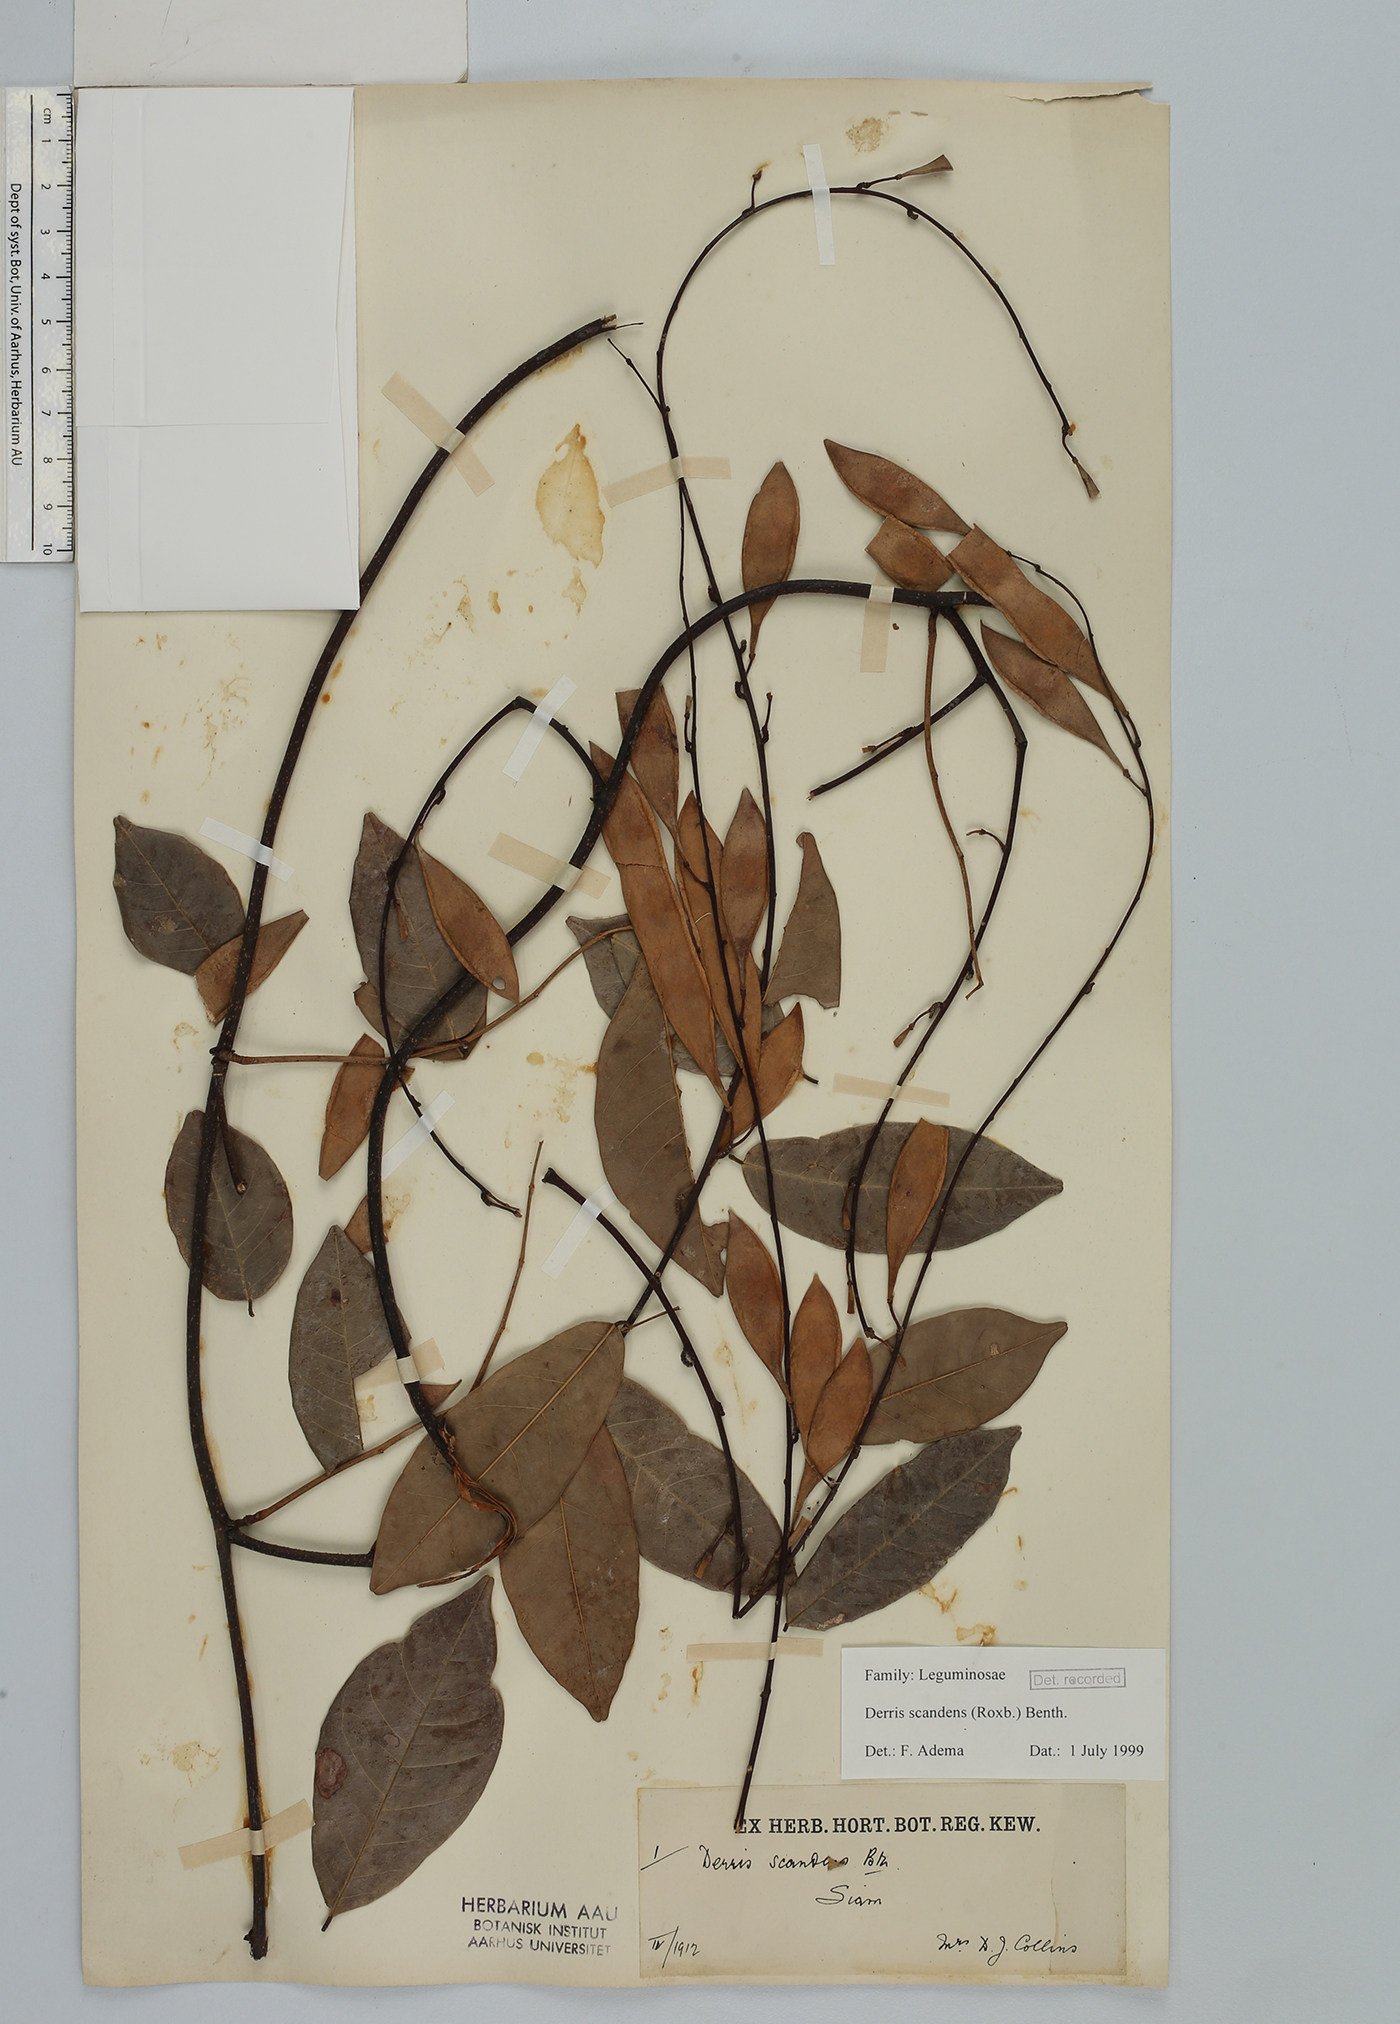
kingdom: Plantae
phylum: Tracheophyta
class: Magnoliopsida
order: Fabales
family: Fabaceae
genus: Brachypterum
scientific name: Brachypterum scandens
